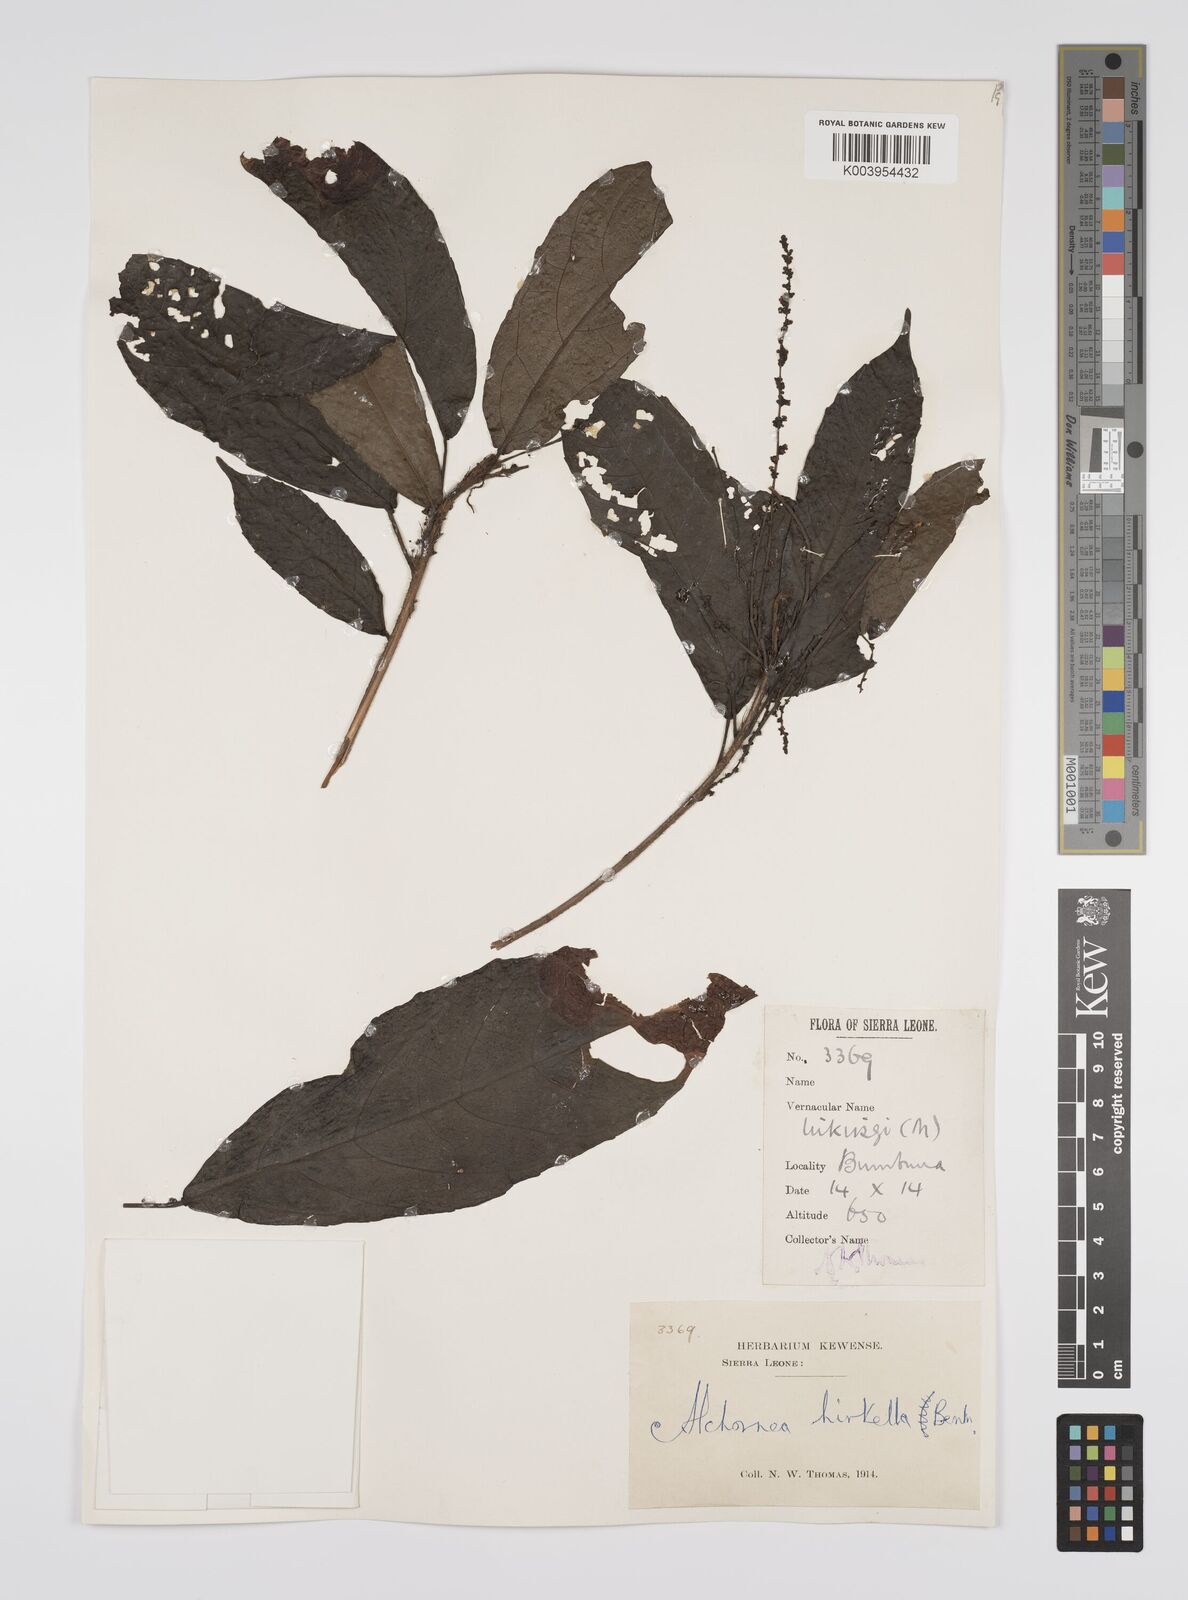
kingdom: Plantae
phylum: Tracheophyta
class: Magnoliopsida
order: Malpighiales
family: Euphorbiaceae
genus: Alchornea
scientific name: Alchornea hirtella
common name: Forest bead-string
